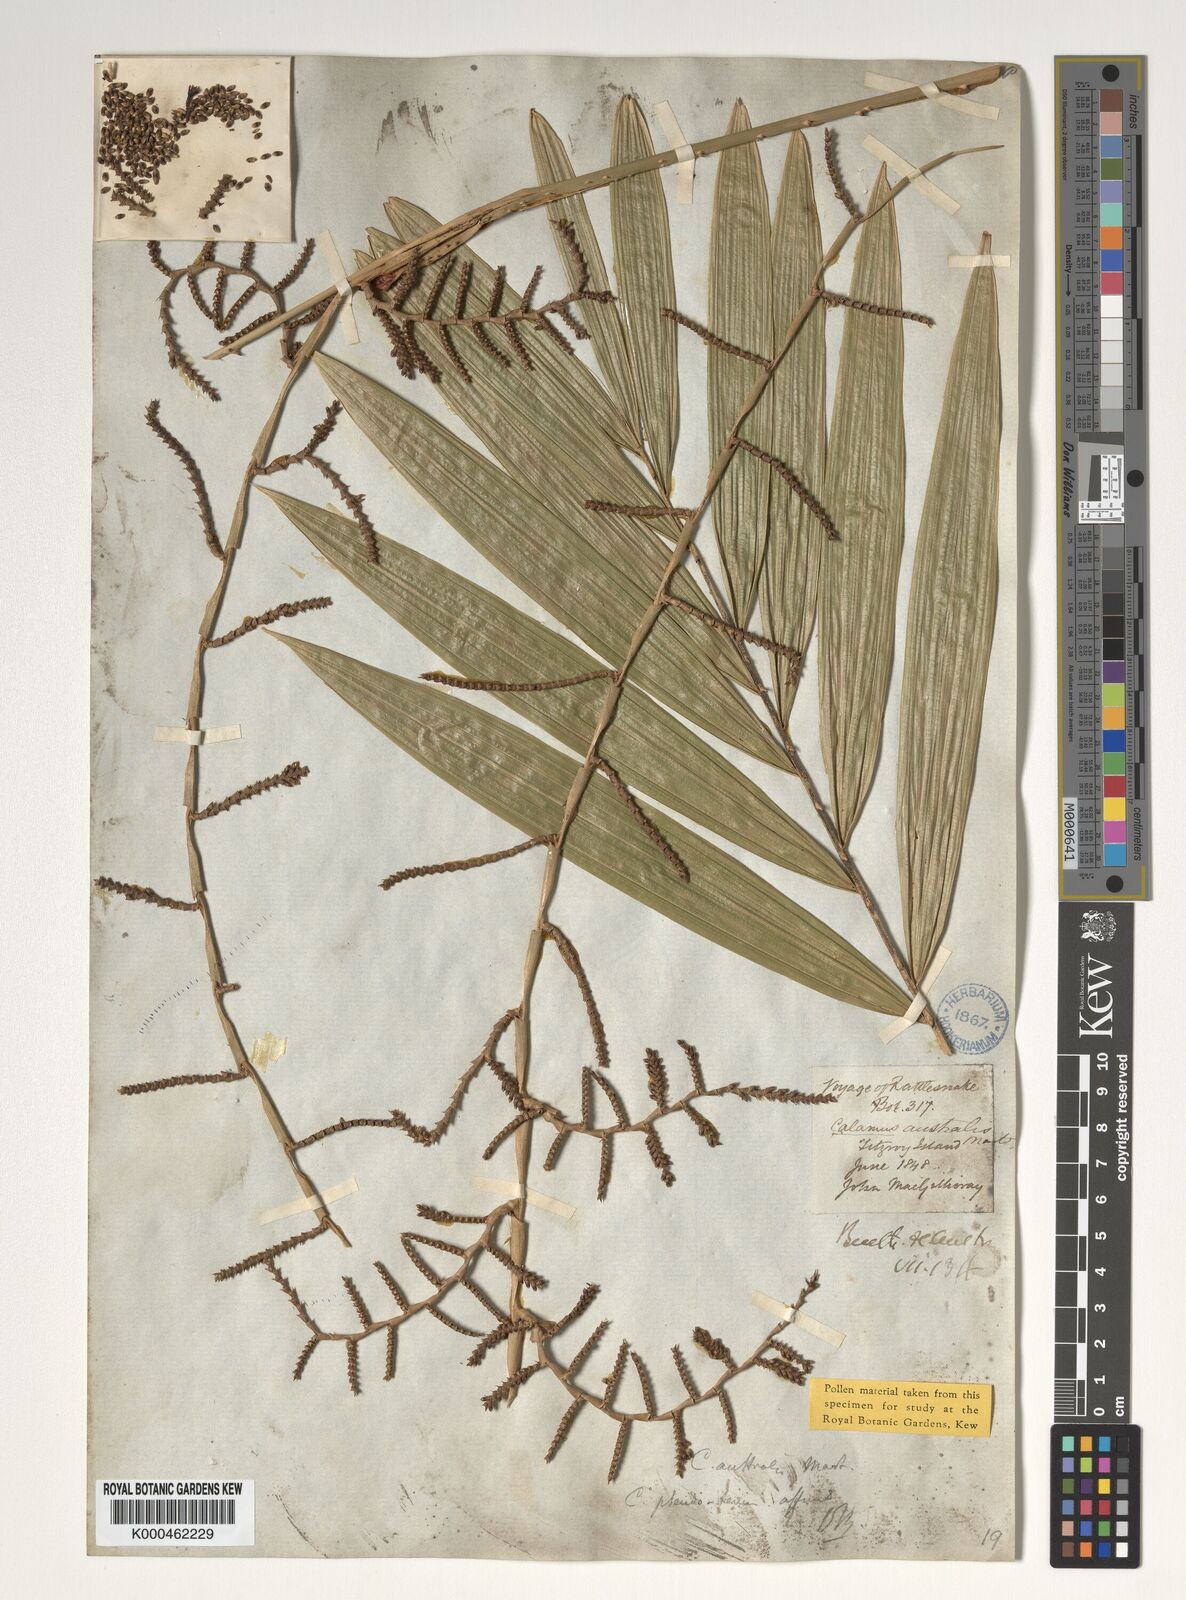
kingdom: Plantae
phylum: Tracheophyta
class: Liliopsida
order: Arecales
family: Arecaceae
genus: Calamus
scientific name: Calamus australis
